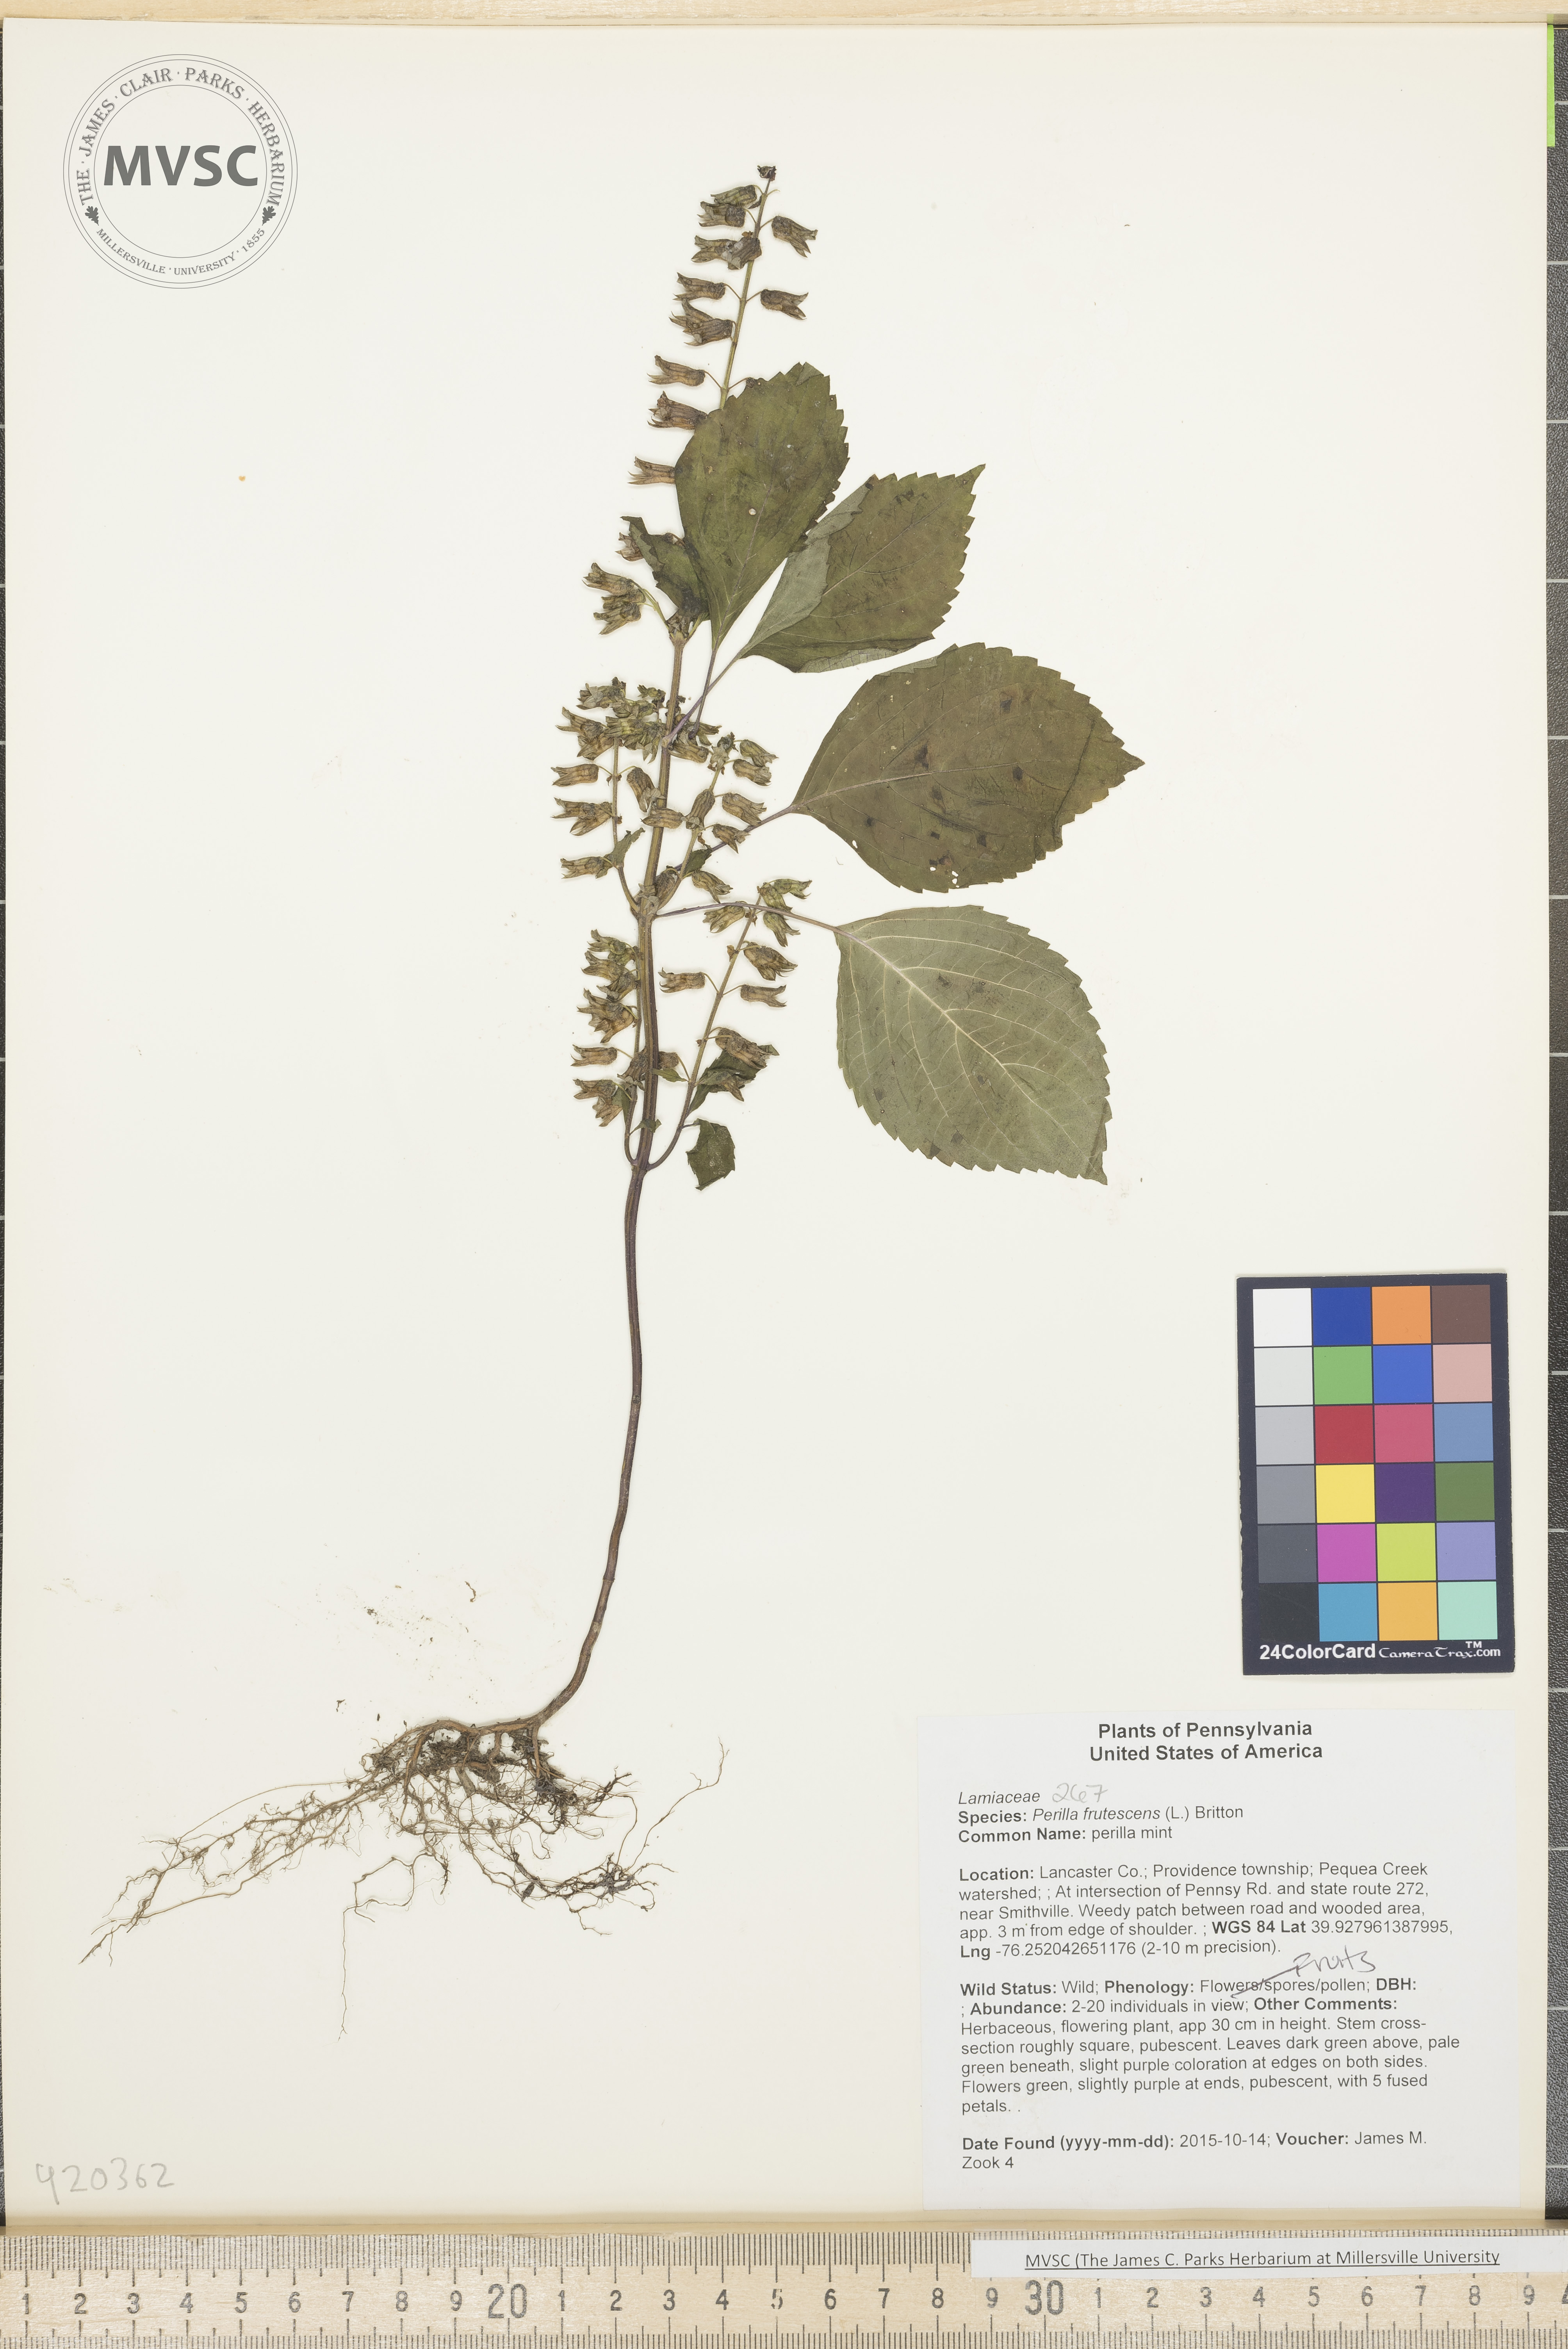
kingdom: Plantae
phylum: Tracheophyta
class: Magnoliopsida
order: Lamiales
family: Lamiaceae
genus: Perilla
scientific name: Perilla frutescens
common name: perilla mint
